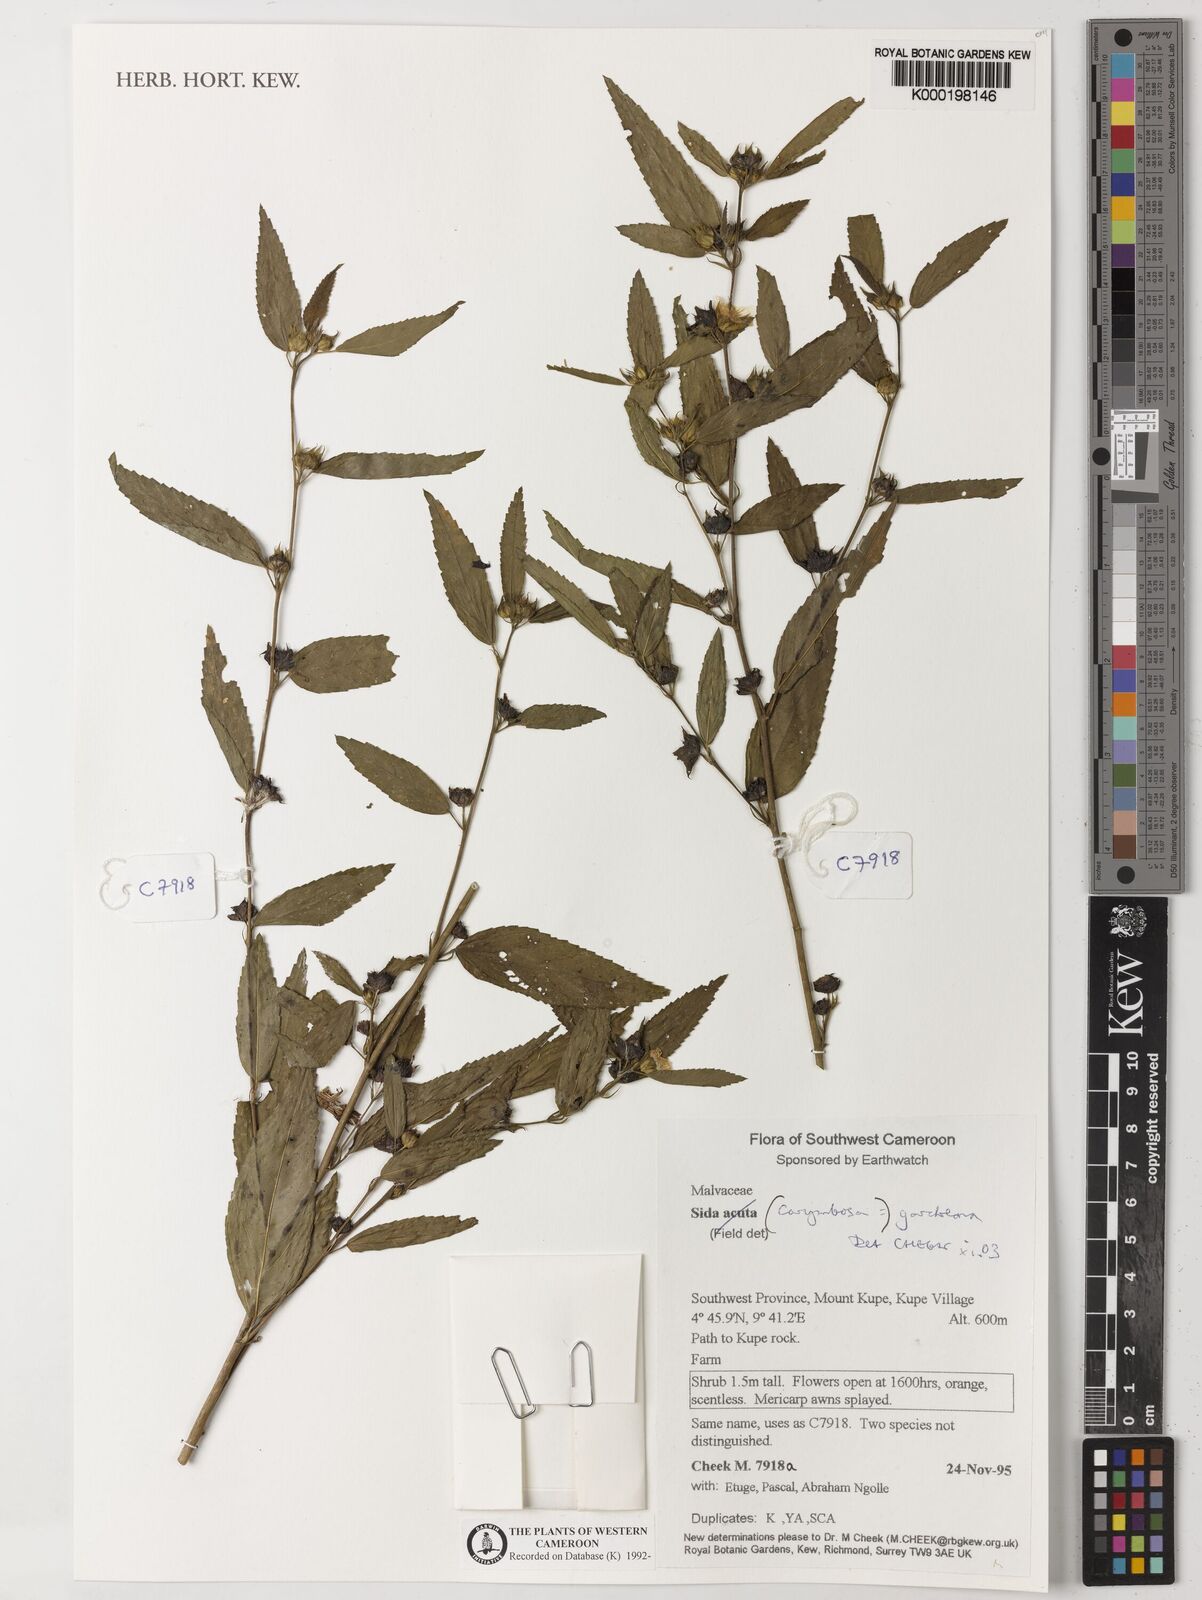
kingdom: Plantae
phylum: Tracheophyta
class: Magnoliopsida
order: Malvales
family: Malvaceae
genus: Sida
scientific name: Sida acuta
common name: Common wireweed
